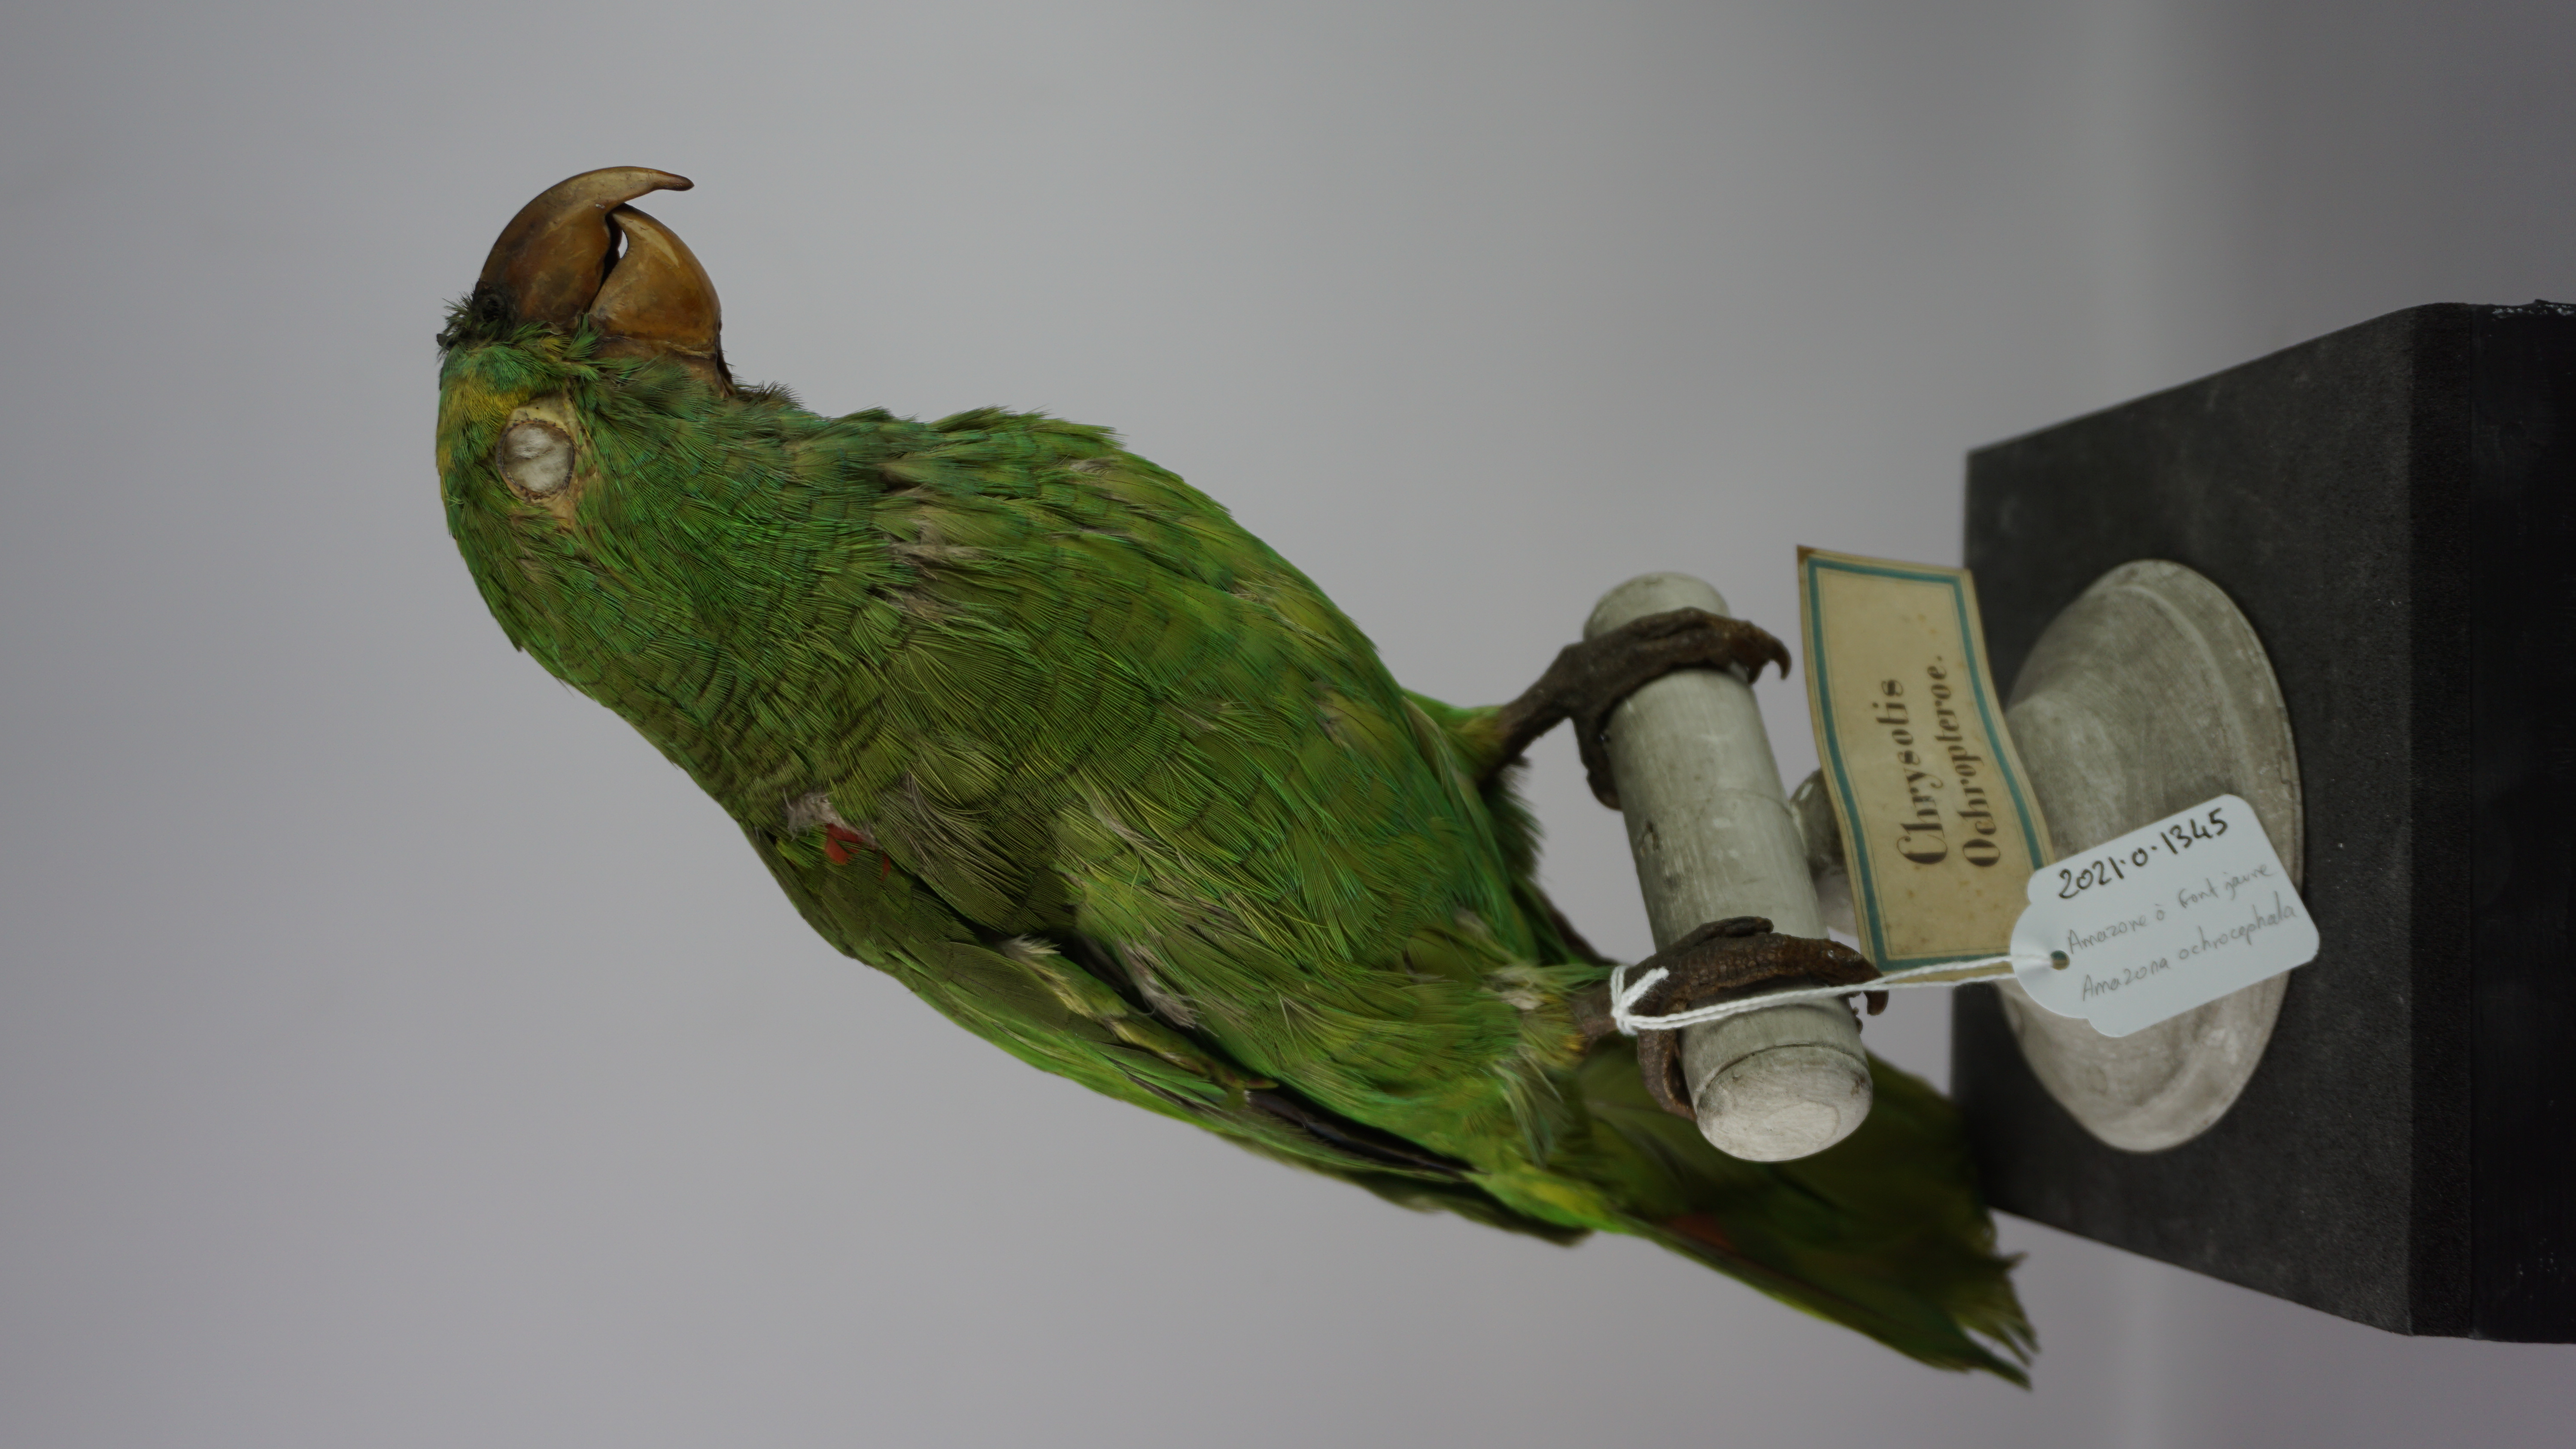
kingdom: Animalia
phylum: Chordata
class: Aves
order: Psittaciformes
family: Psittacidae
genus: Amazona
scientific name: Amazona ochrocephala
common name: Yellow-crowned amazon
